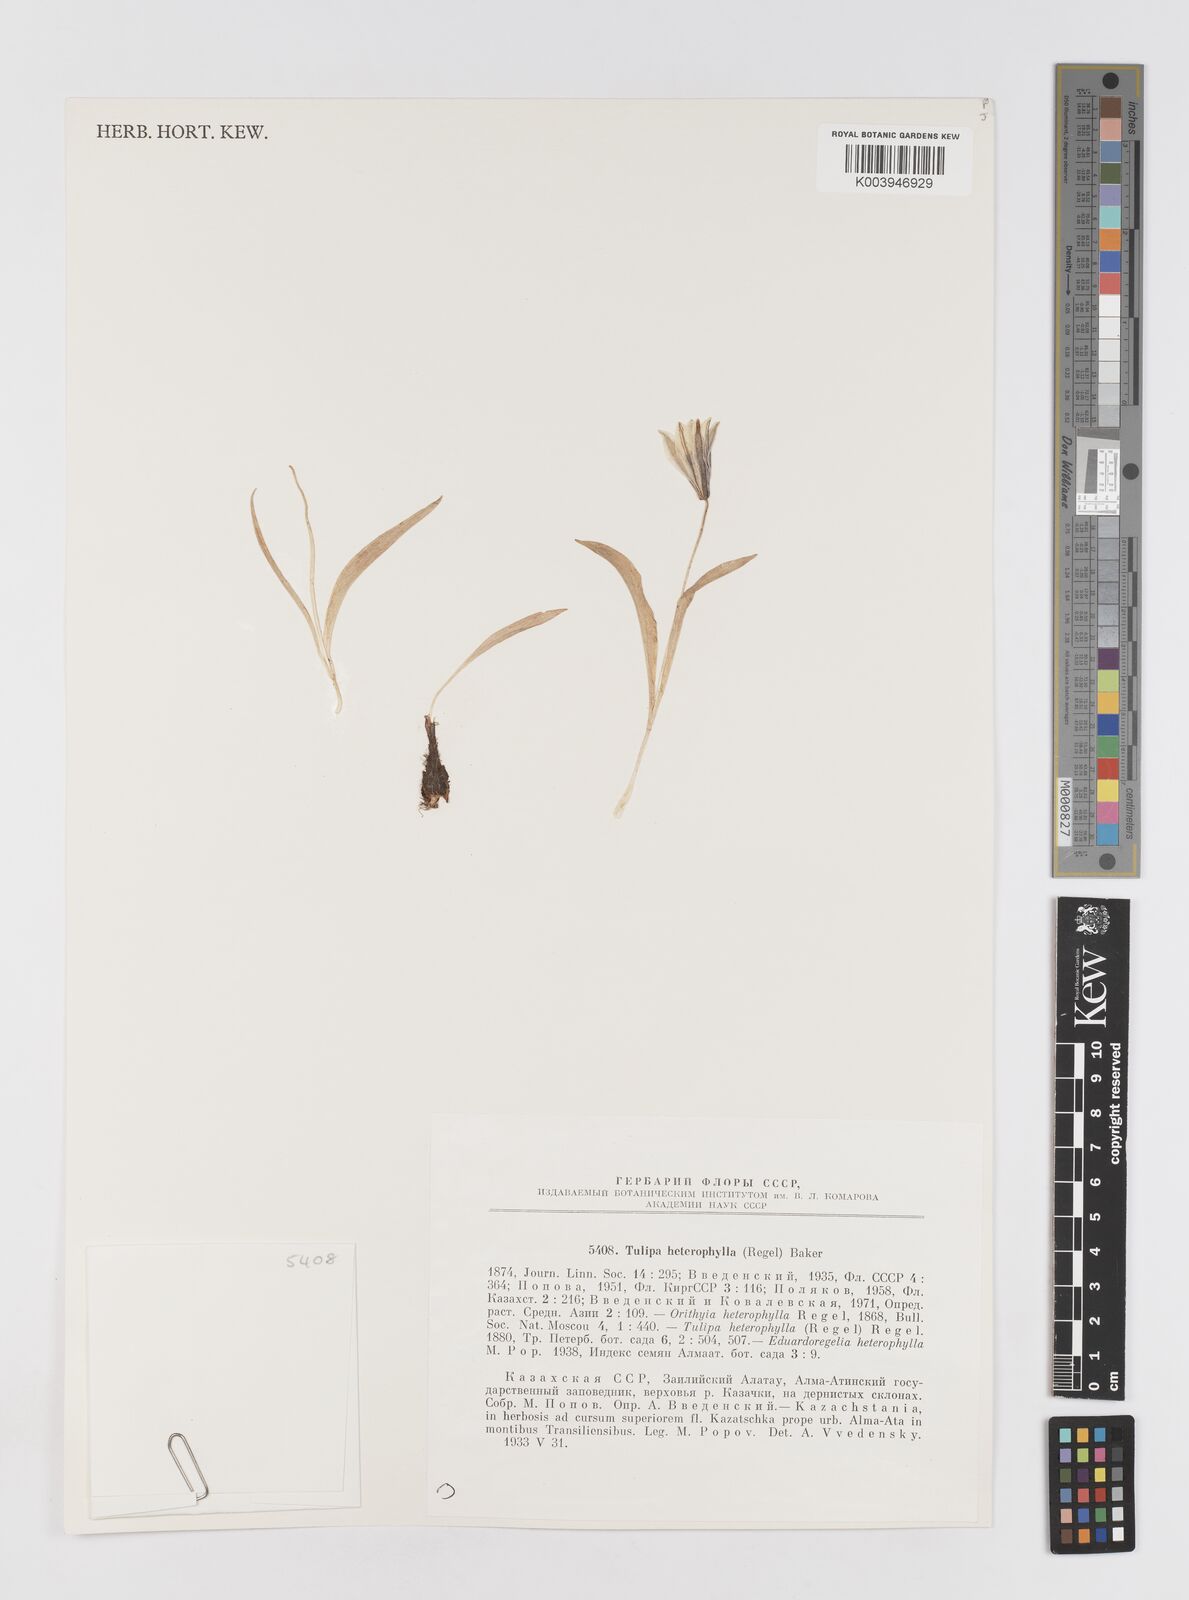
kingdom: Plantae
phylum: Tracheophyta
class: Liliopsida
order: Liliales
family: Liliaceae
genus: Tulipa
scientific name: Tulipa heterophylla
